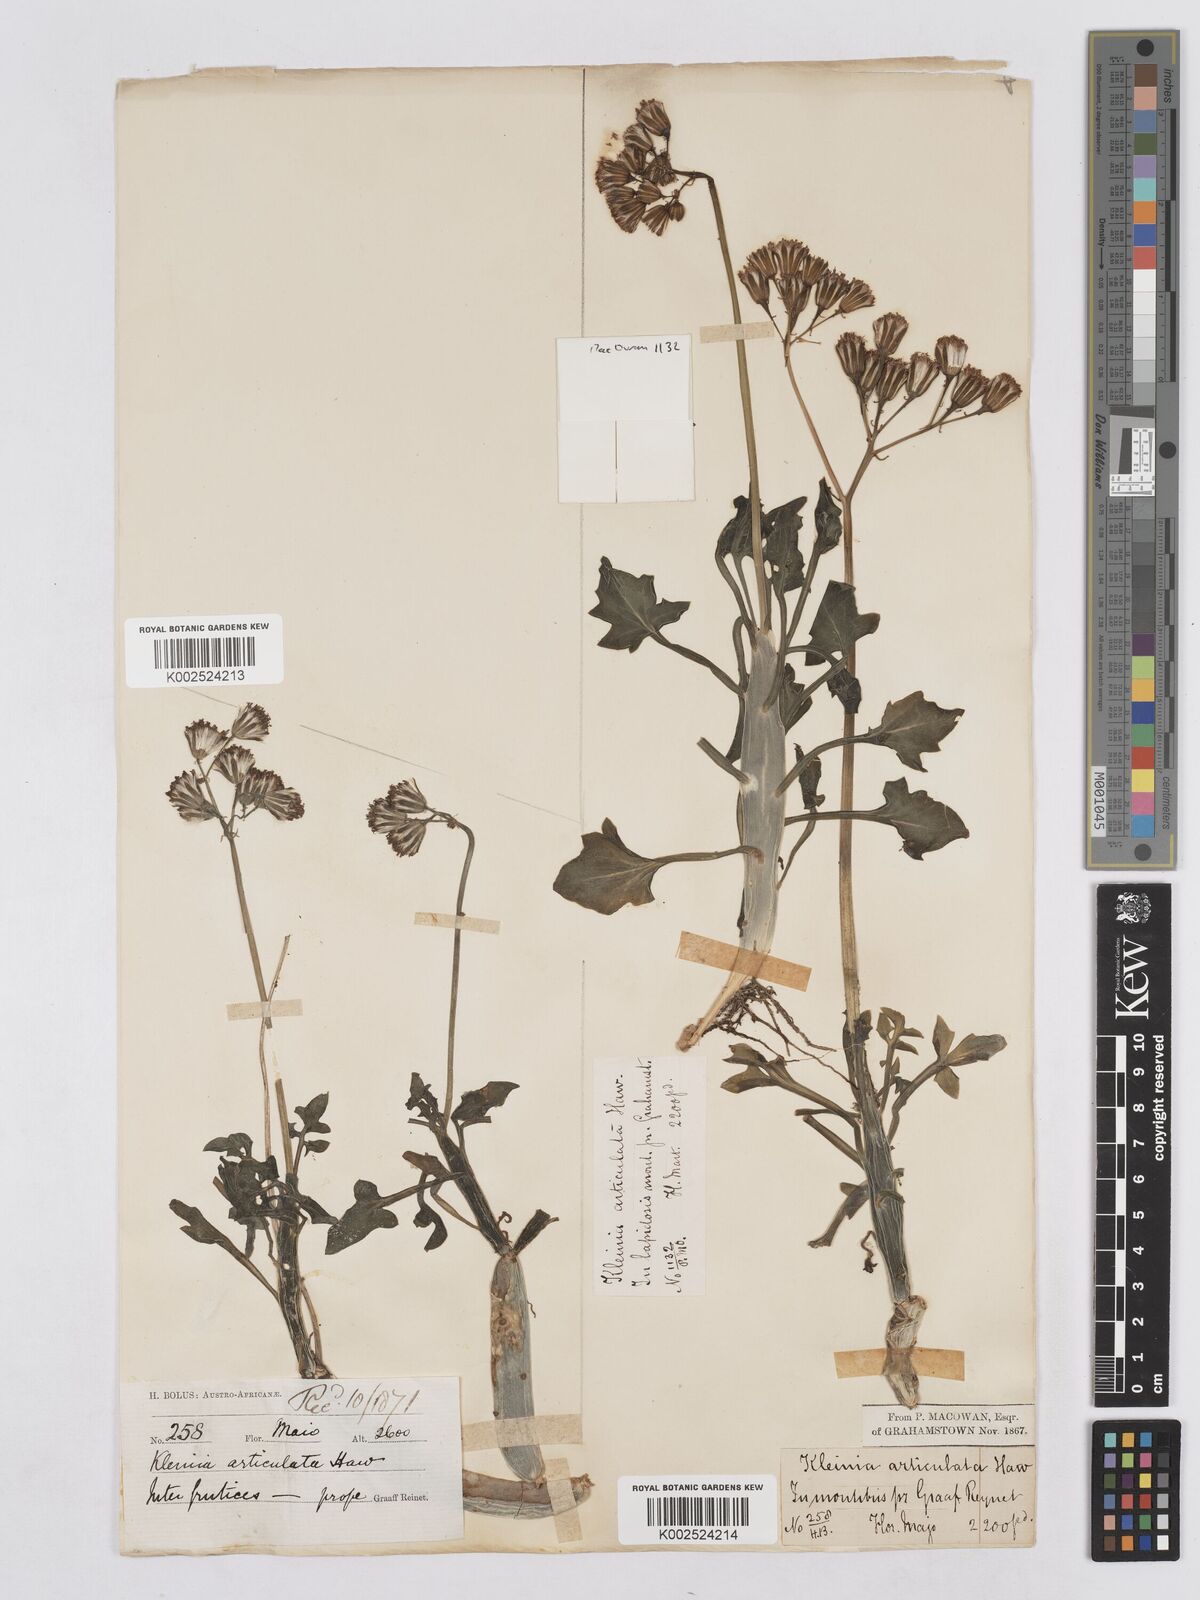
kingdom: Plantae
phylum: Tracheophyta
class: Magnoliopsida
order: Asterales
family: Asteraceae
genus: Curio
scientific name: Curio articulatus
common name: Candleplant
